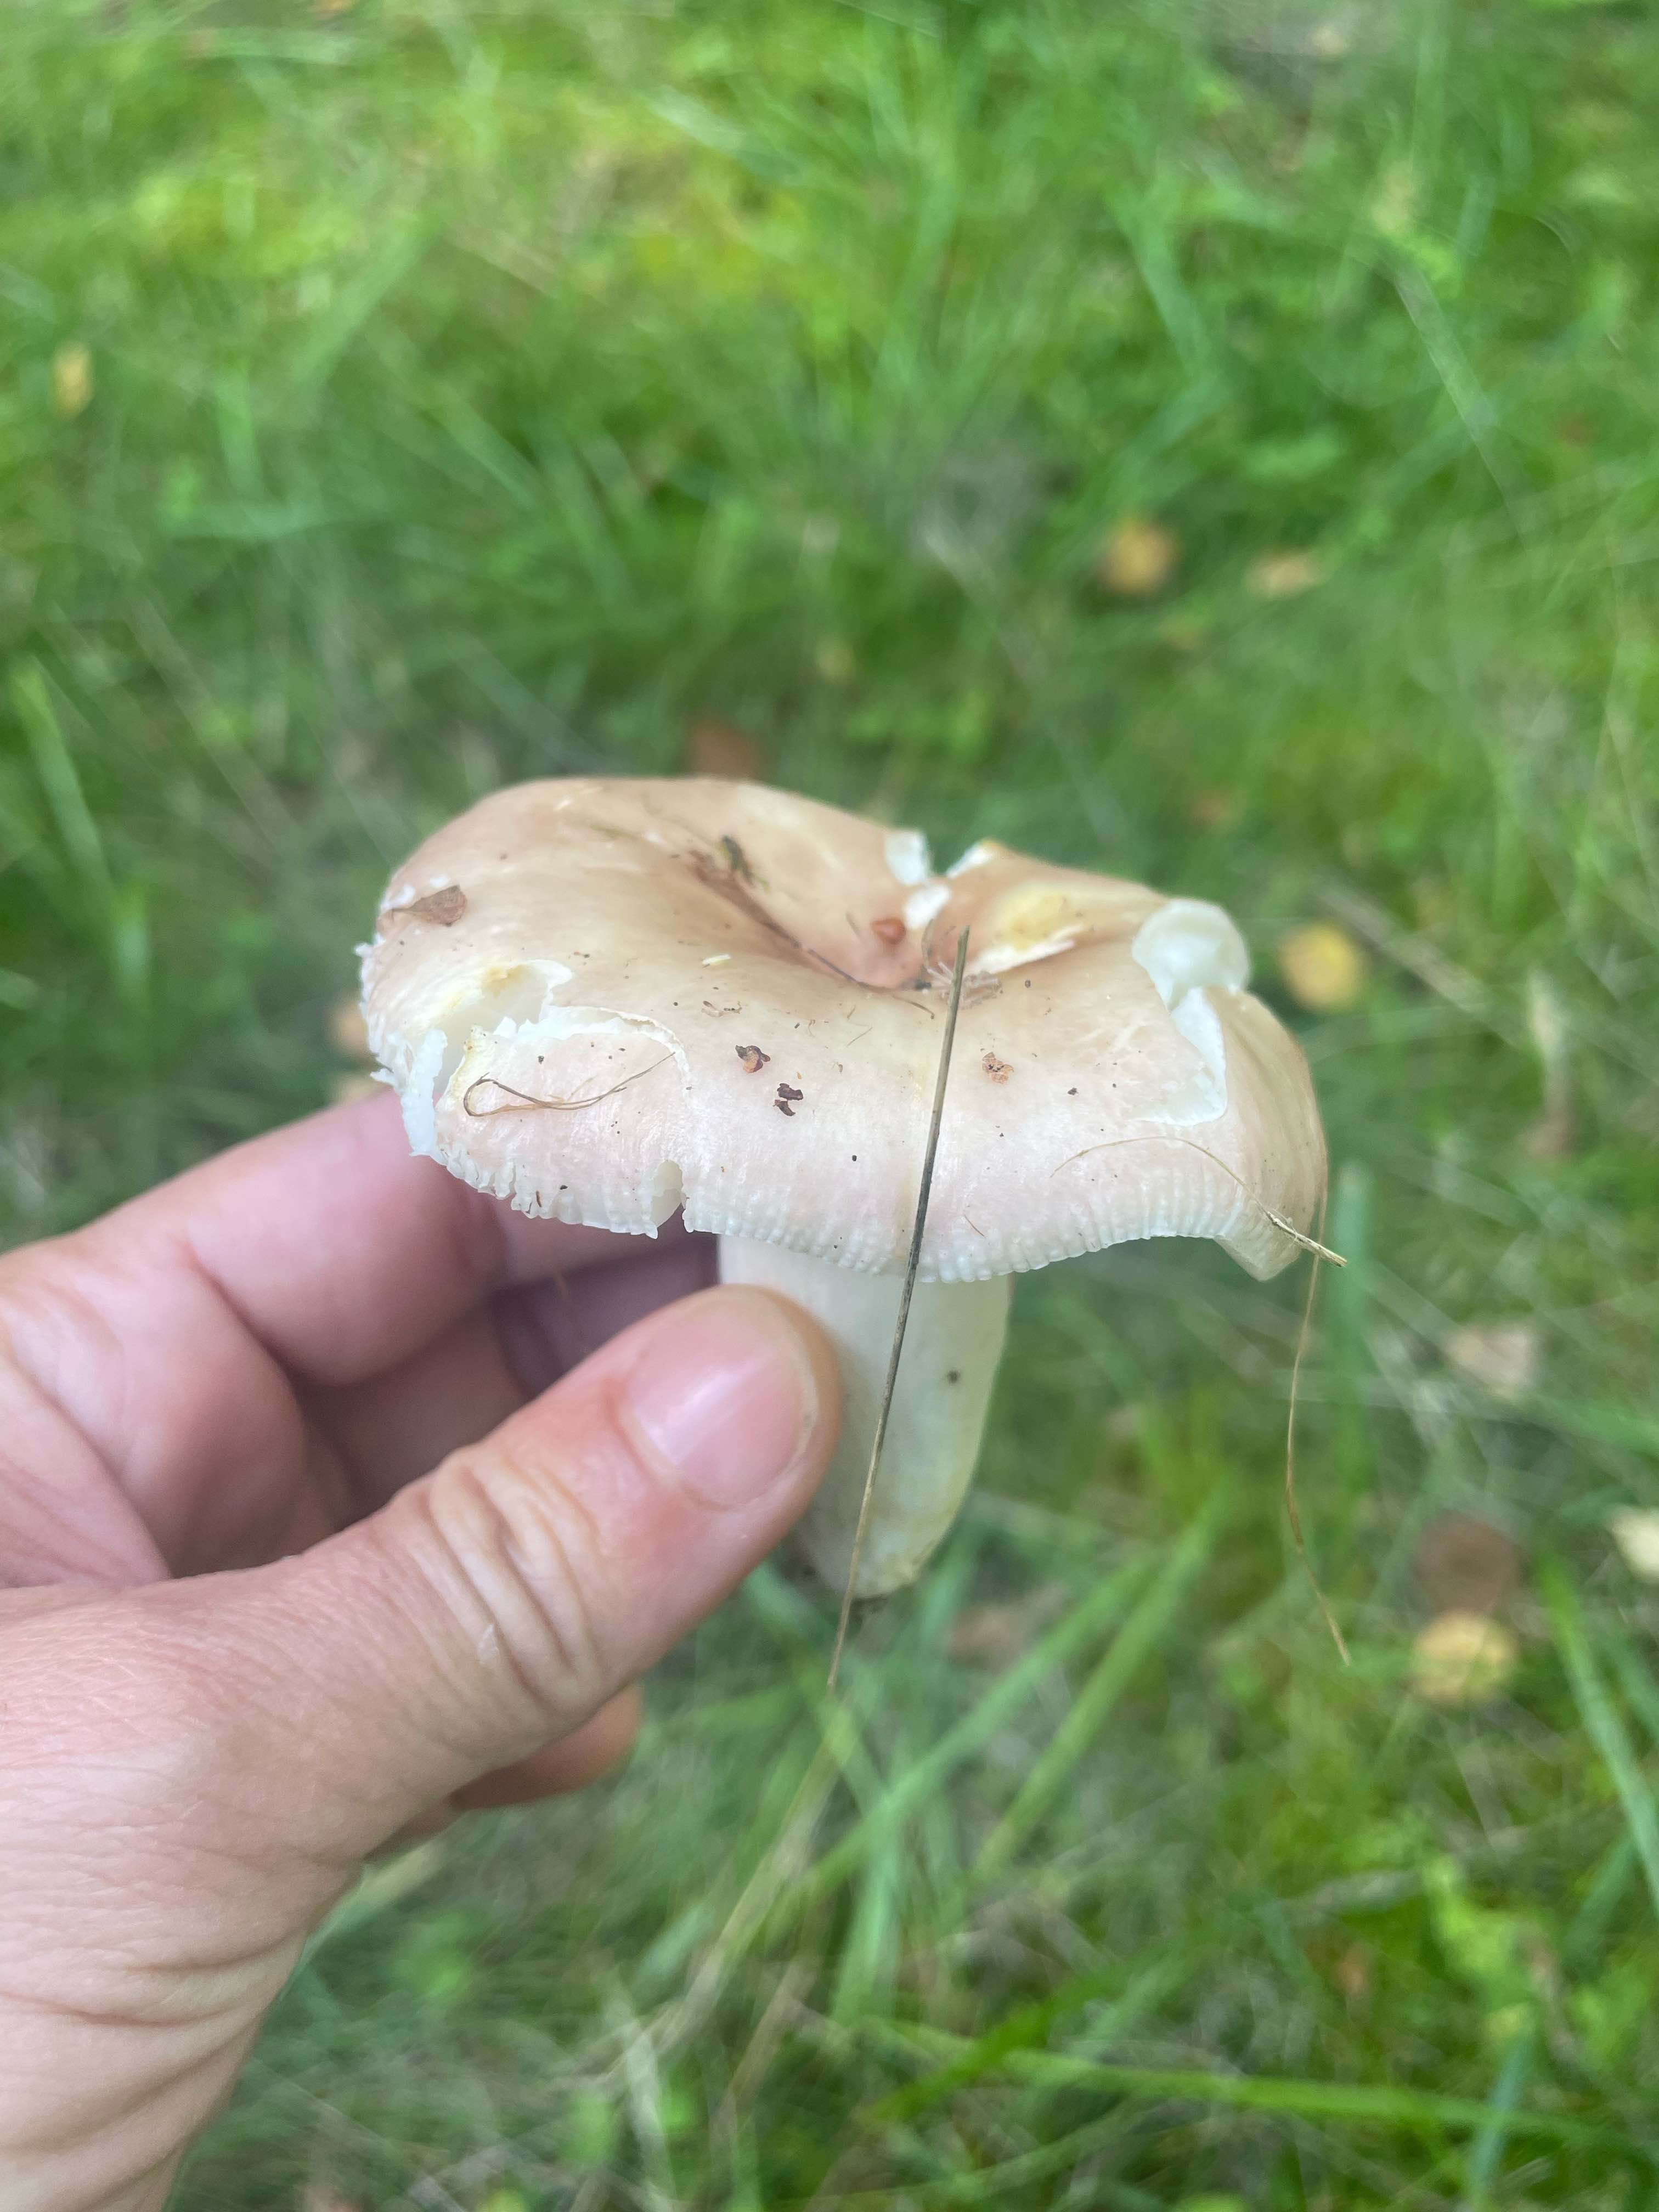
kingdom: Fungi
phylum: Basidiomycota
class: Agaricomycetes
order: Russulales
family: Russulaceae
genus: Russula
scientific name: Russula
